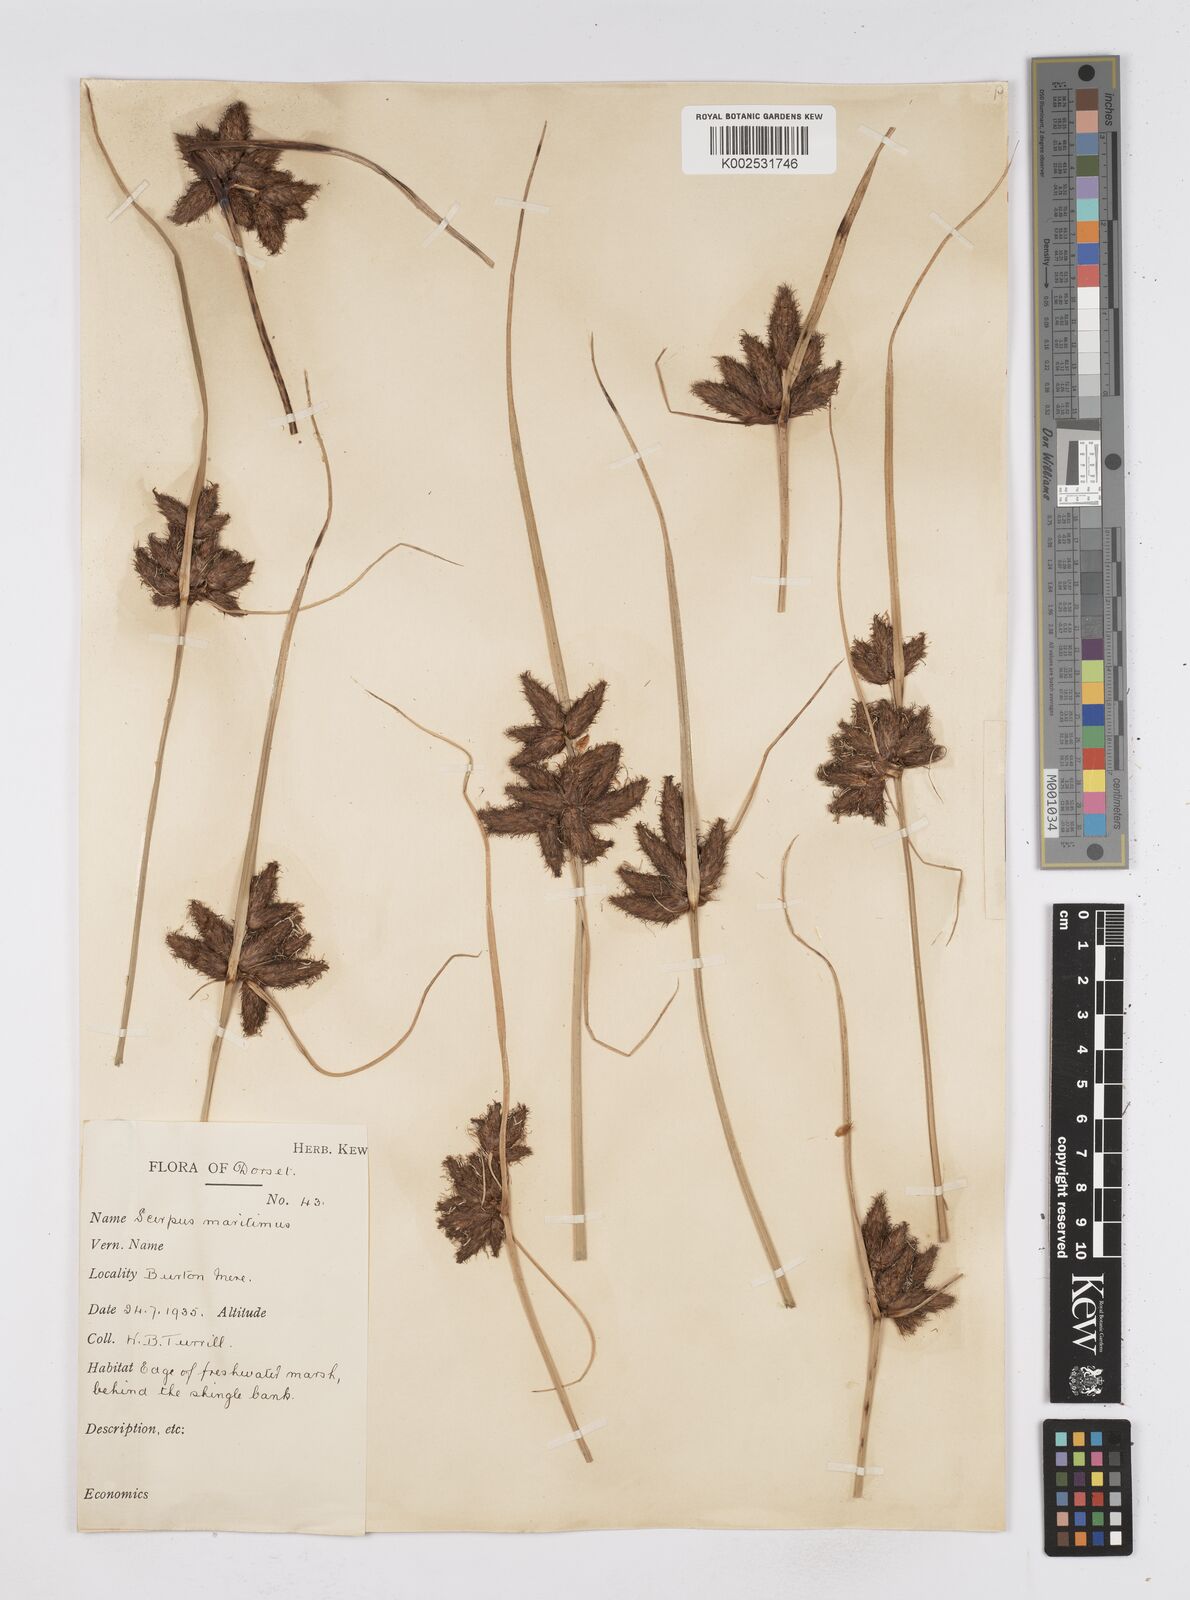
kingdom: Plantae
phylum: Tracheophyta
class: Liliopsida
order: Poales
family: Cyperaceae
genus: Bolboschoenus
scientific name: Bolboschoenus maritimus
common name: Sea club-rush
